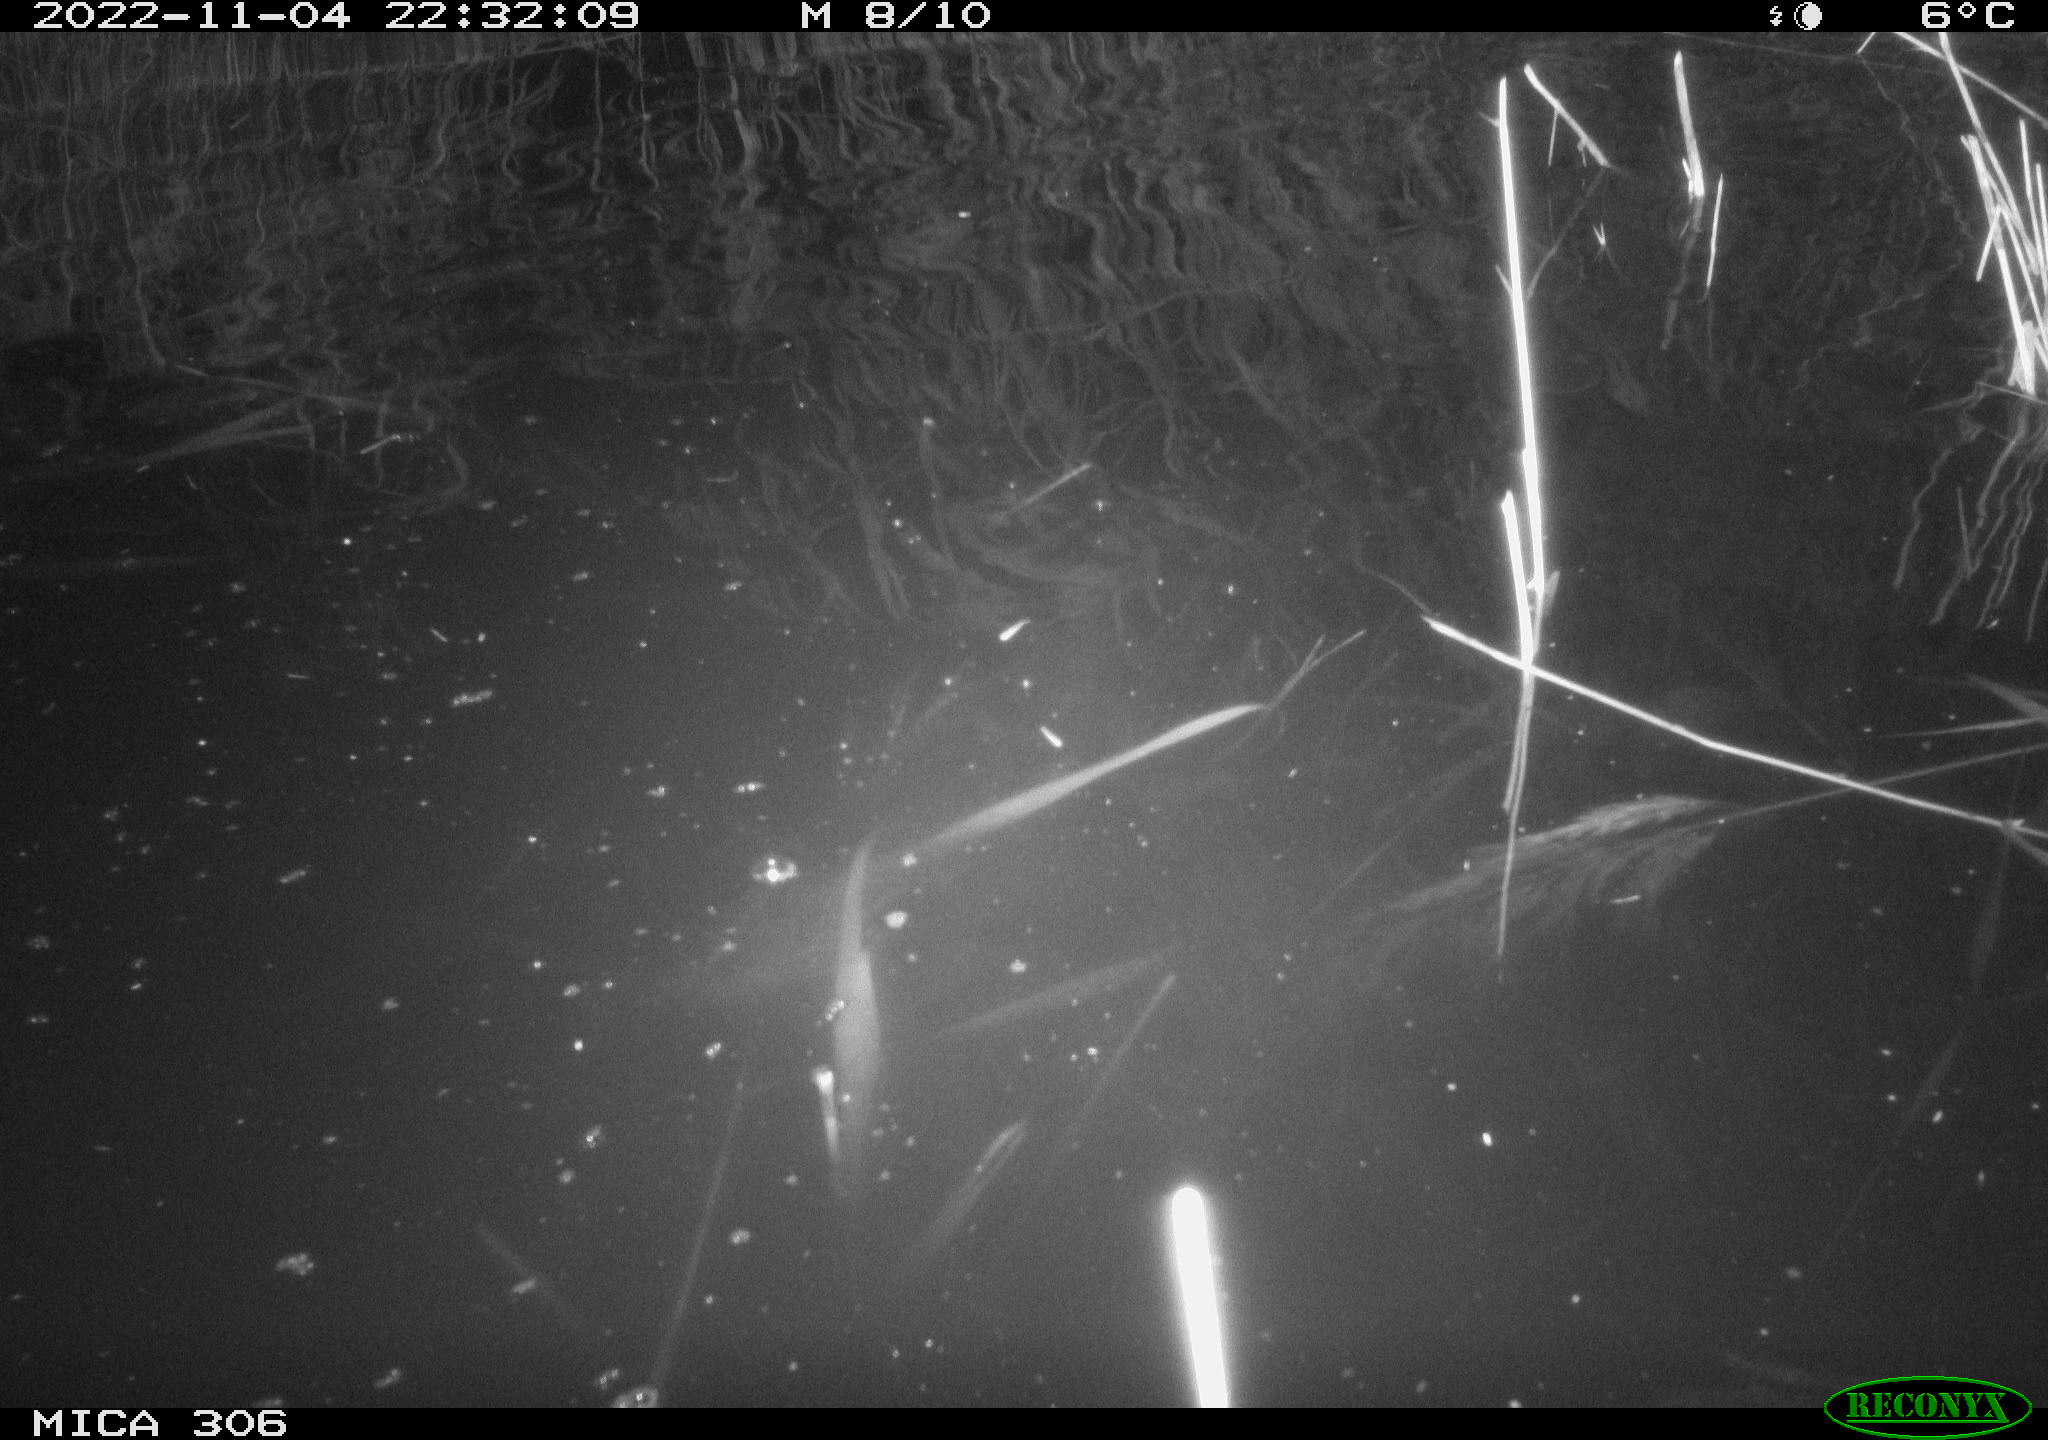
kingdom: Animalia
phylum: Chordata
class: Mammalia
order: Rodentia
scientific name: Rodentia
